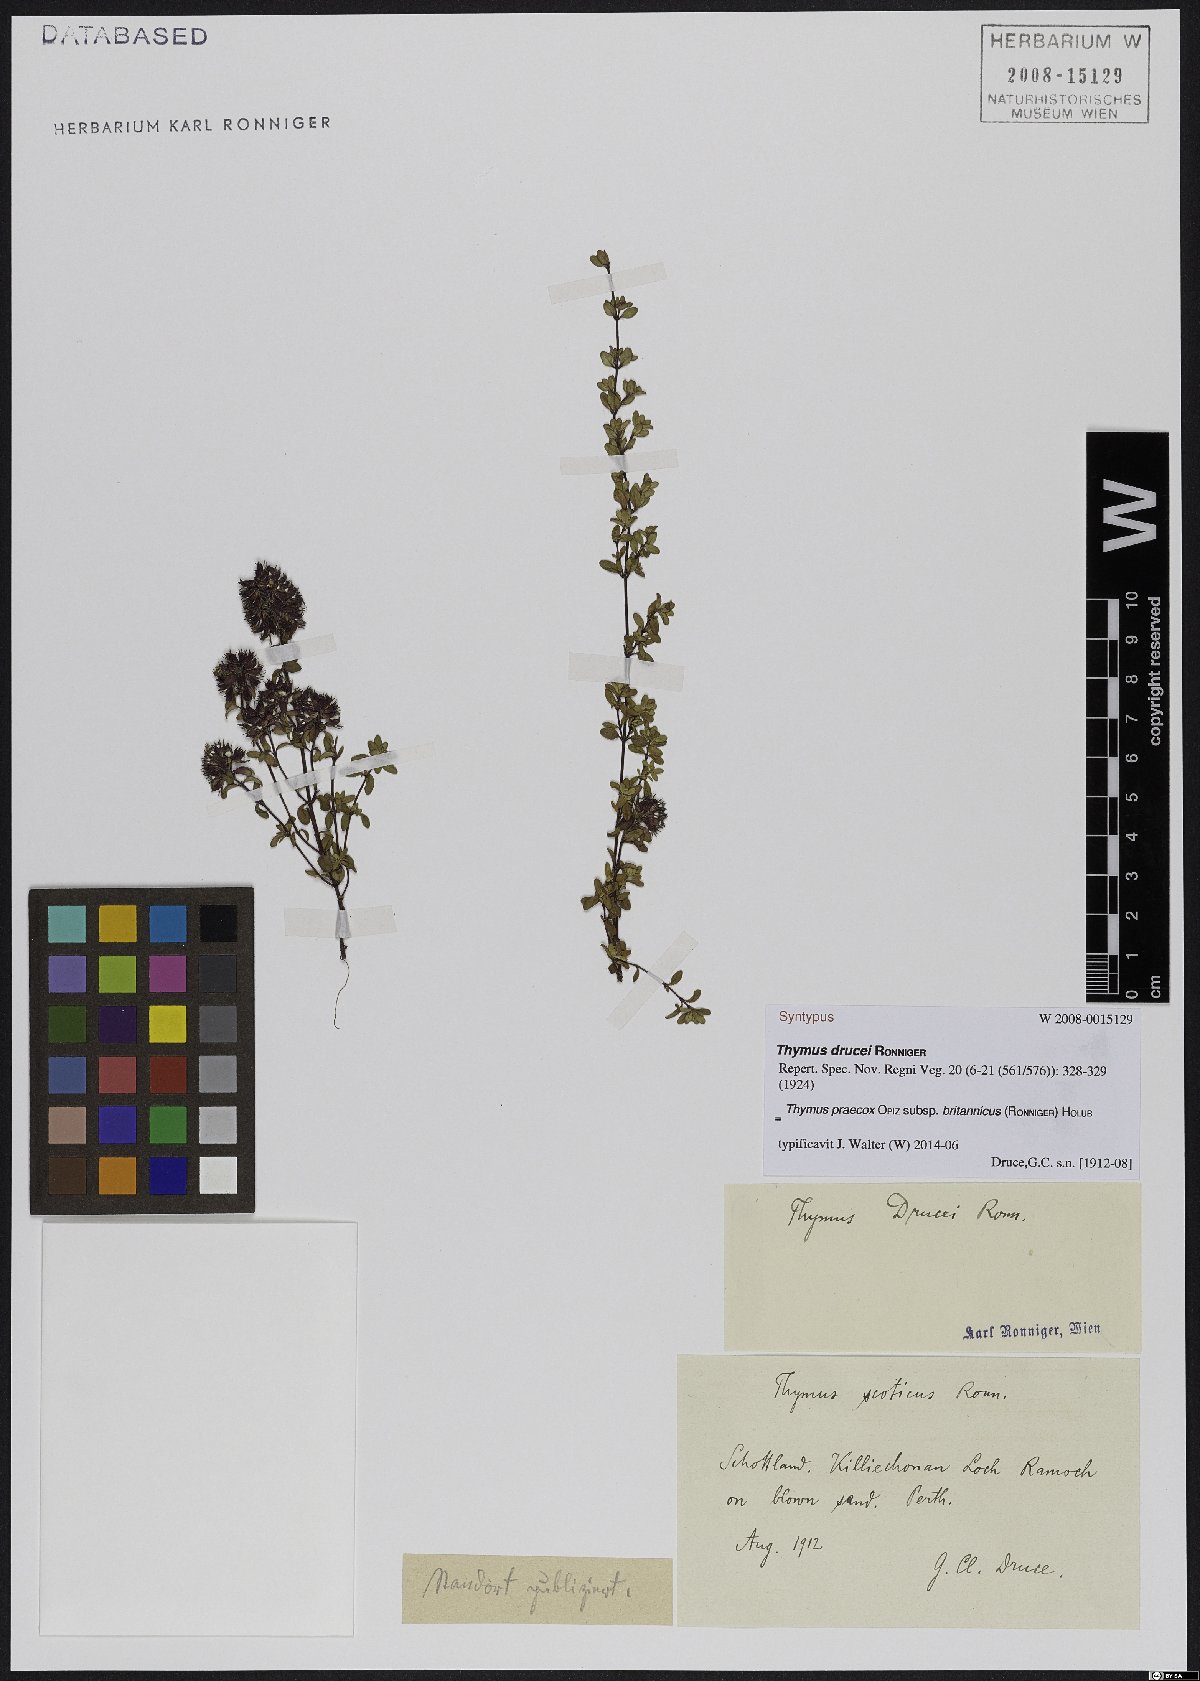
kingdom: Plantae
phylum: Tracheophyta
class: Magnoliopsida
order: Lamiales
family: Lamiaceae
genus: Thymus
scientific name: Thymus praecox
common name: Wild thyme
